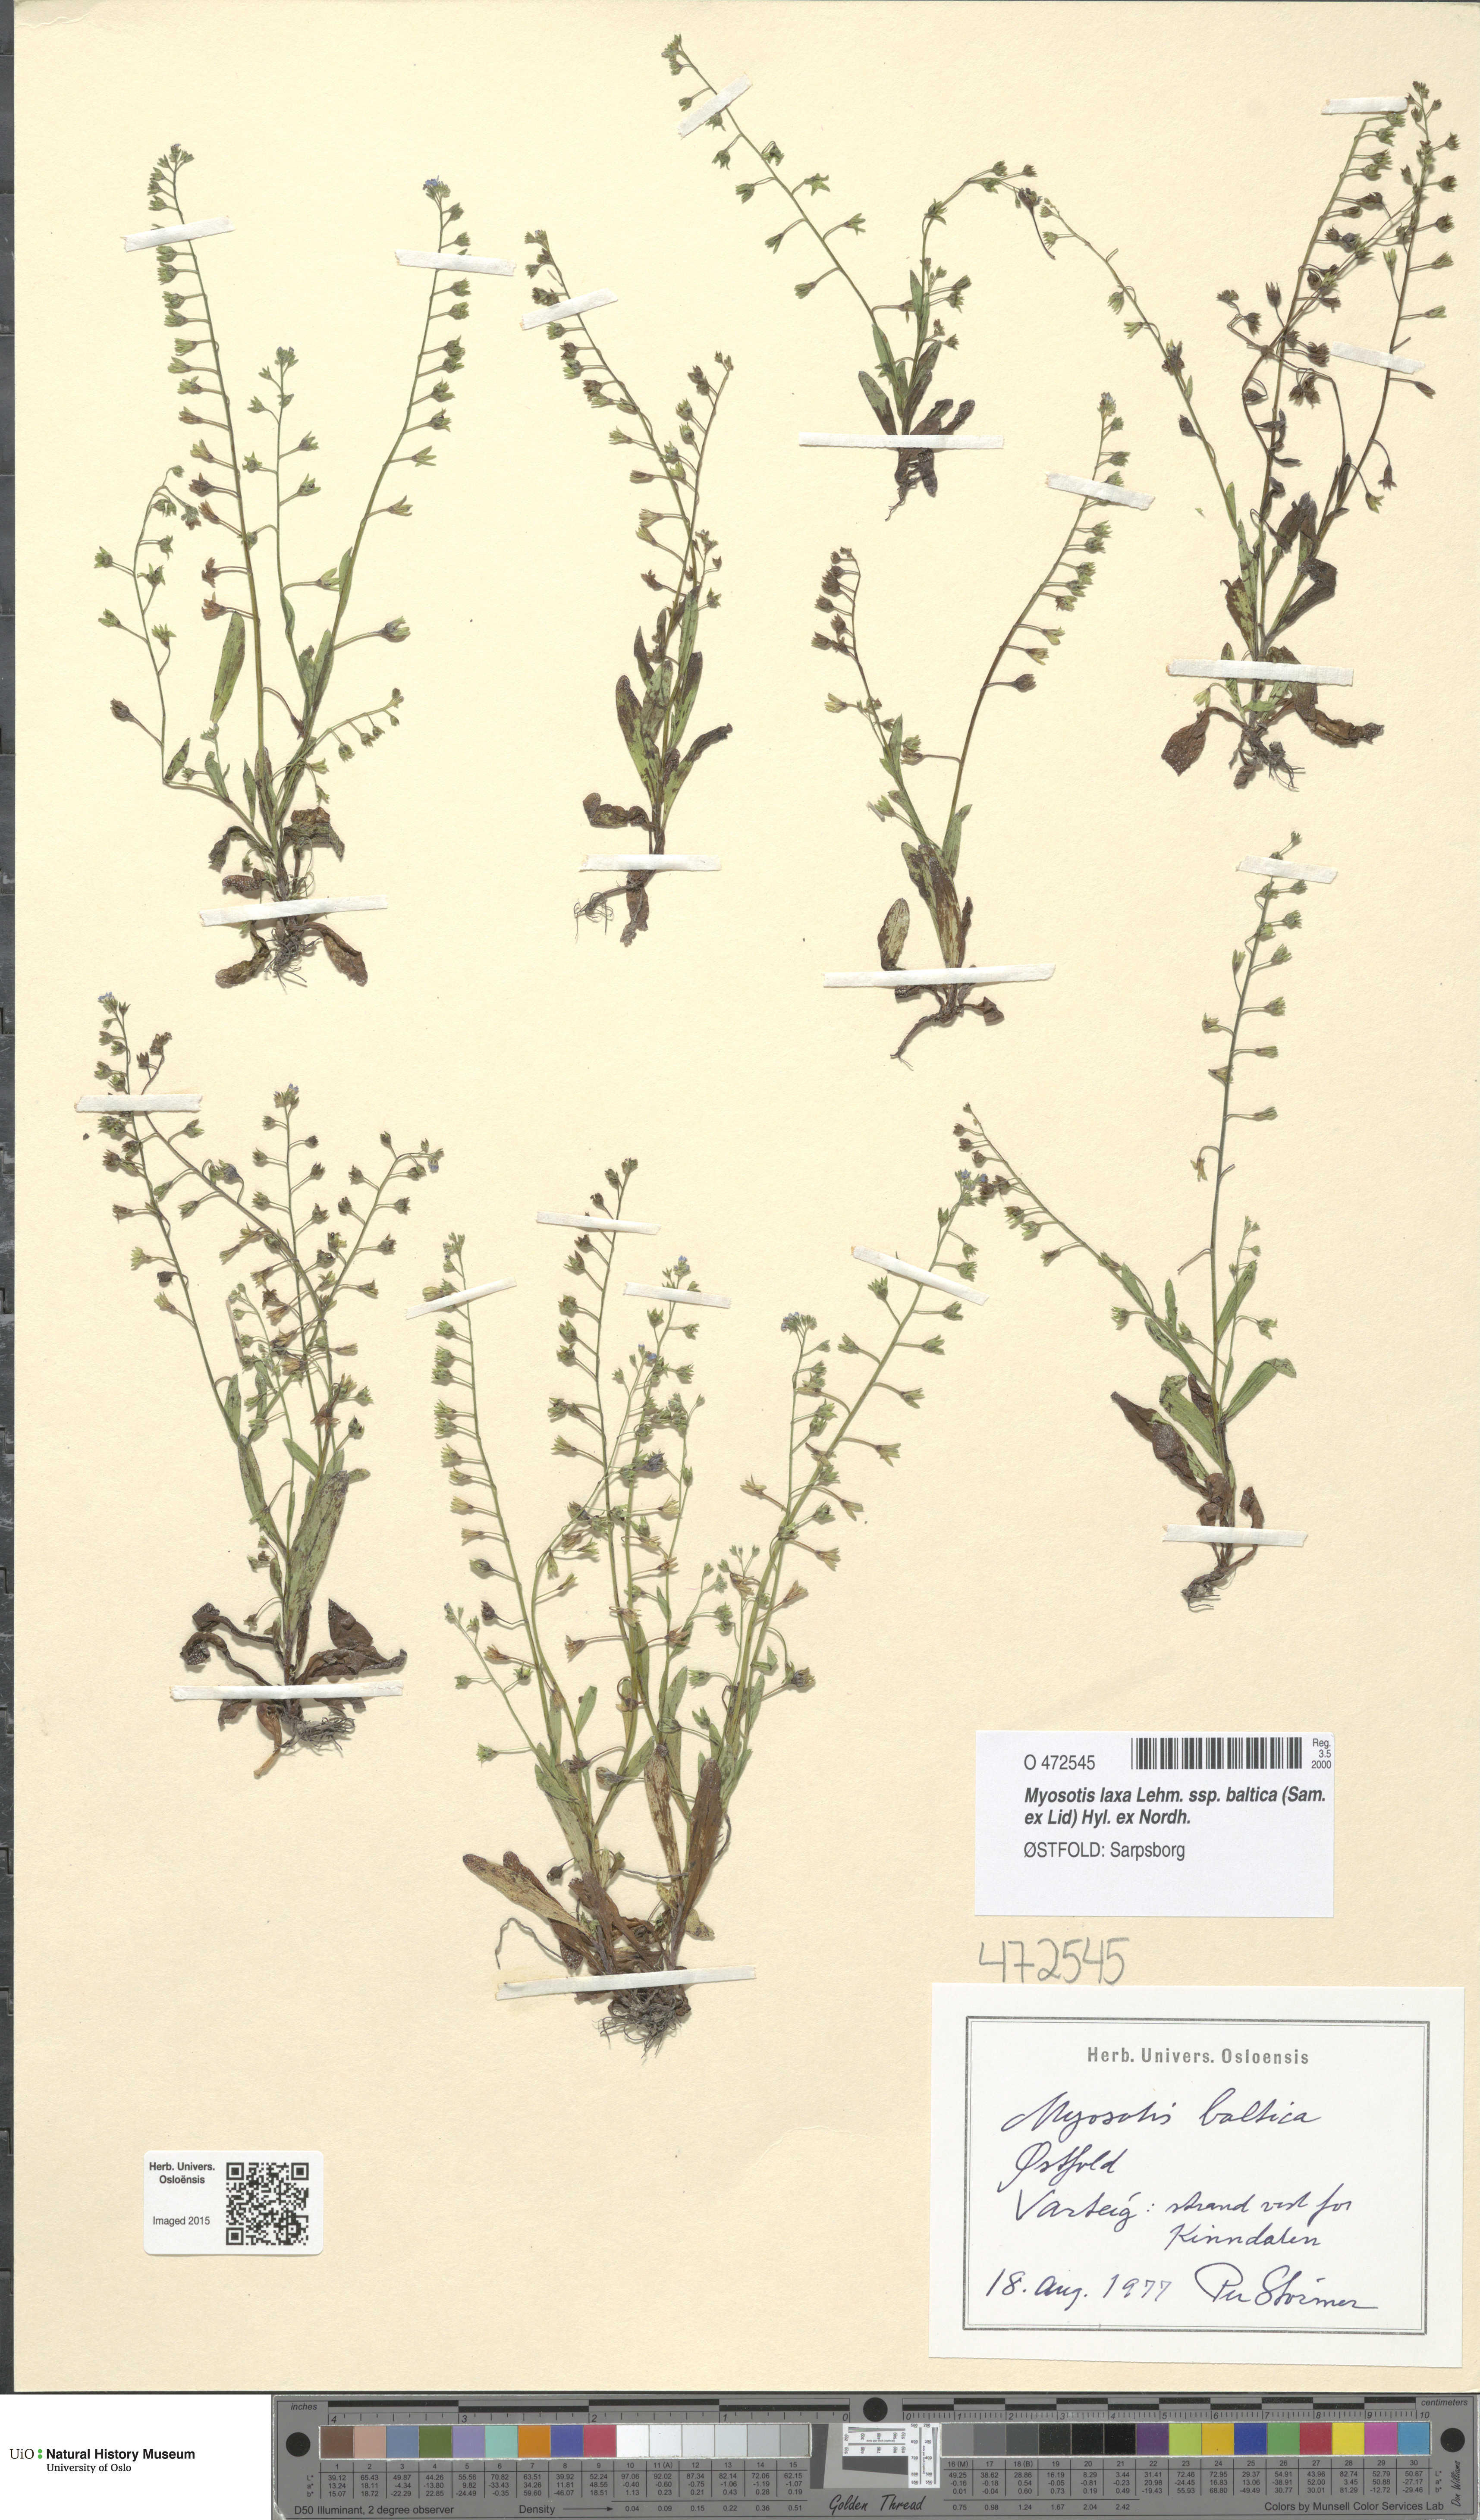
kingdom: Plantae
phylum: Tracheophyta
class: Magnoliopsida
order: Boraginales
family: Boraginaceae
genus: Myosotis
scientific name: Myosotis laxa
